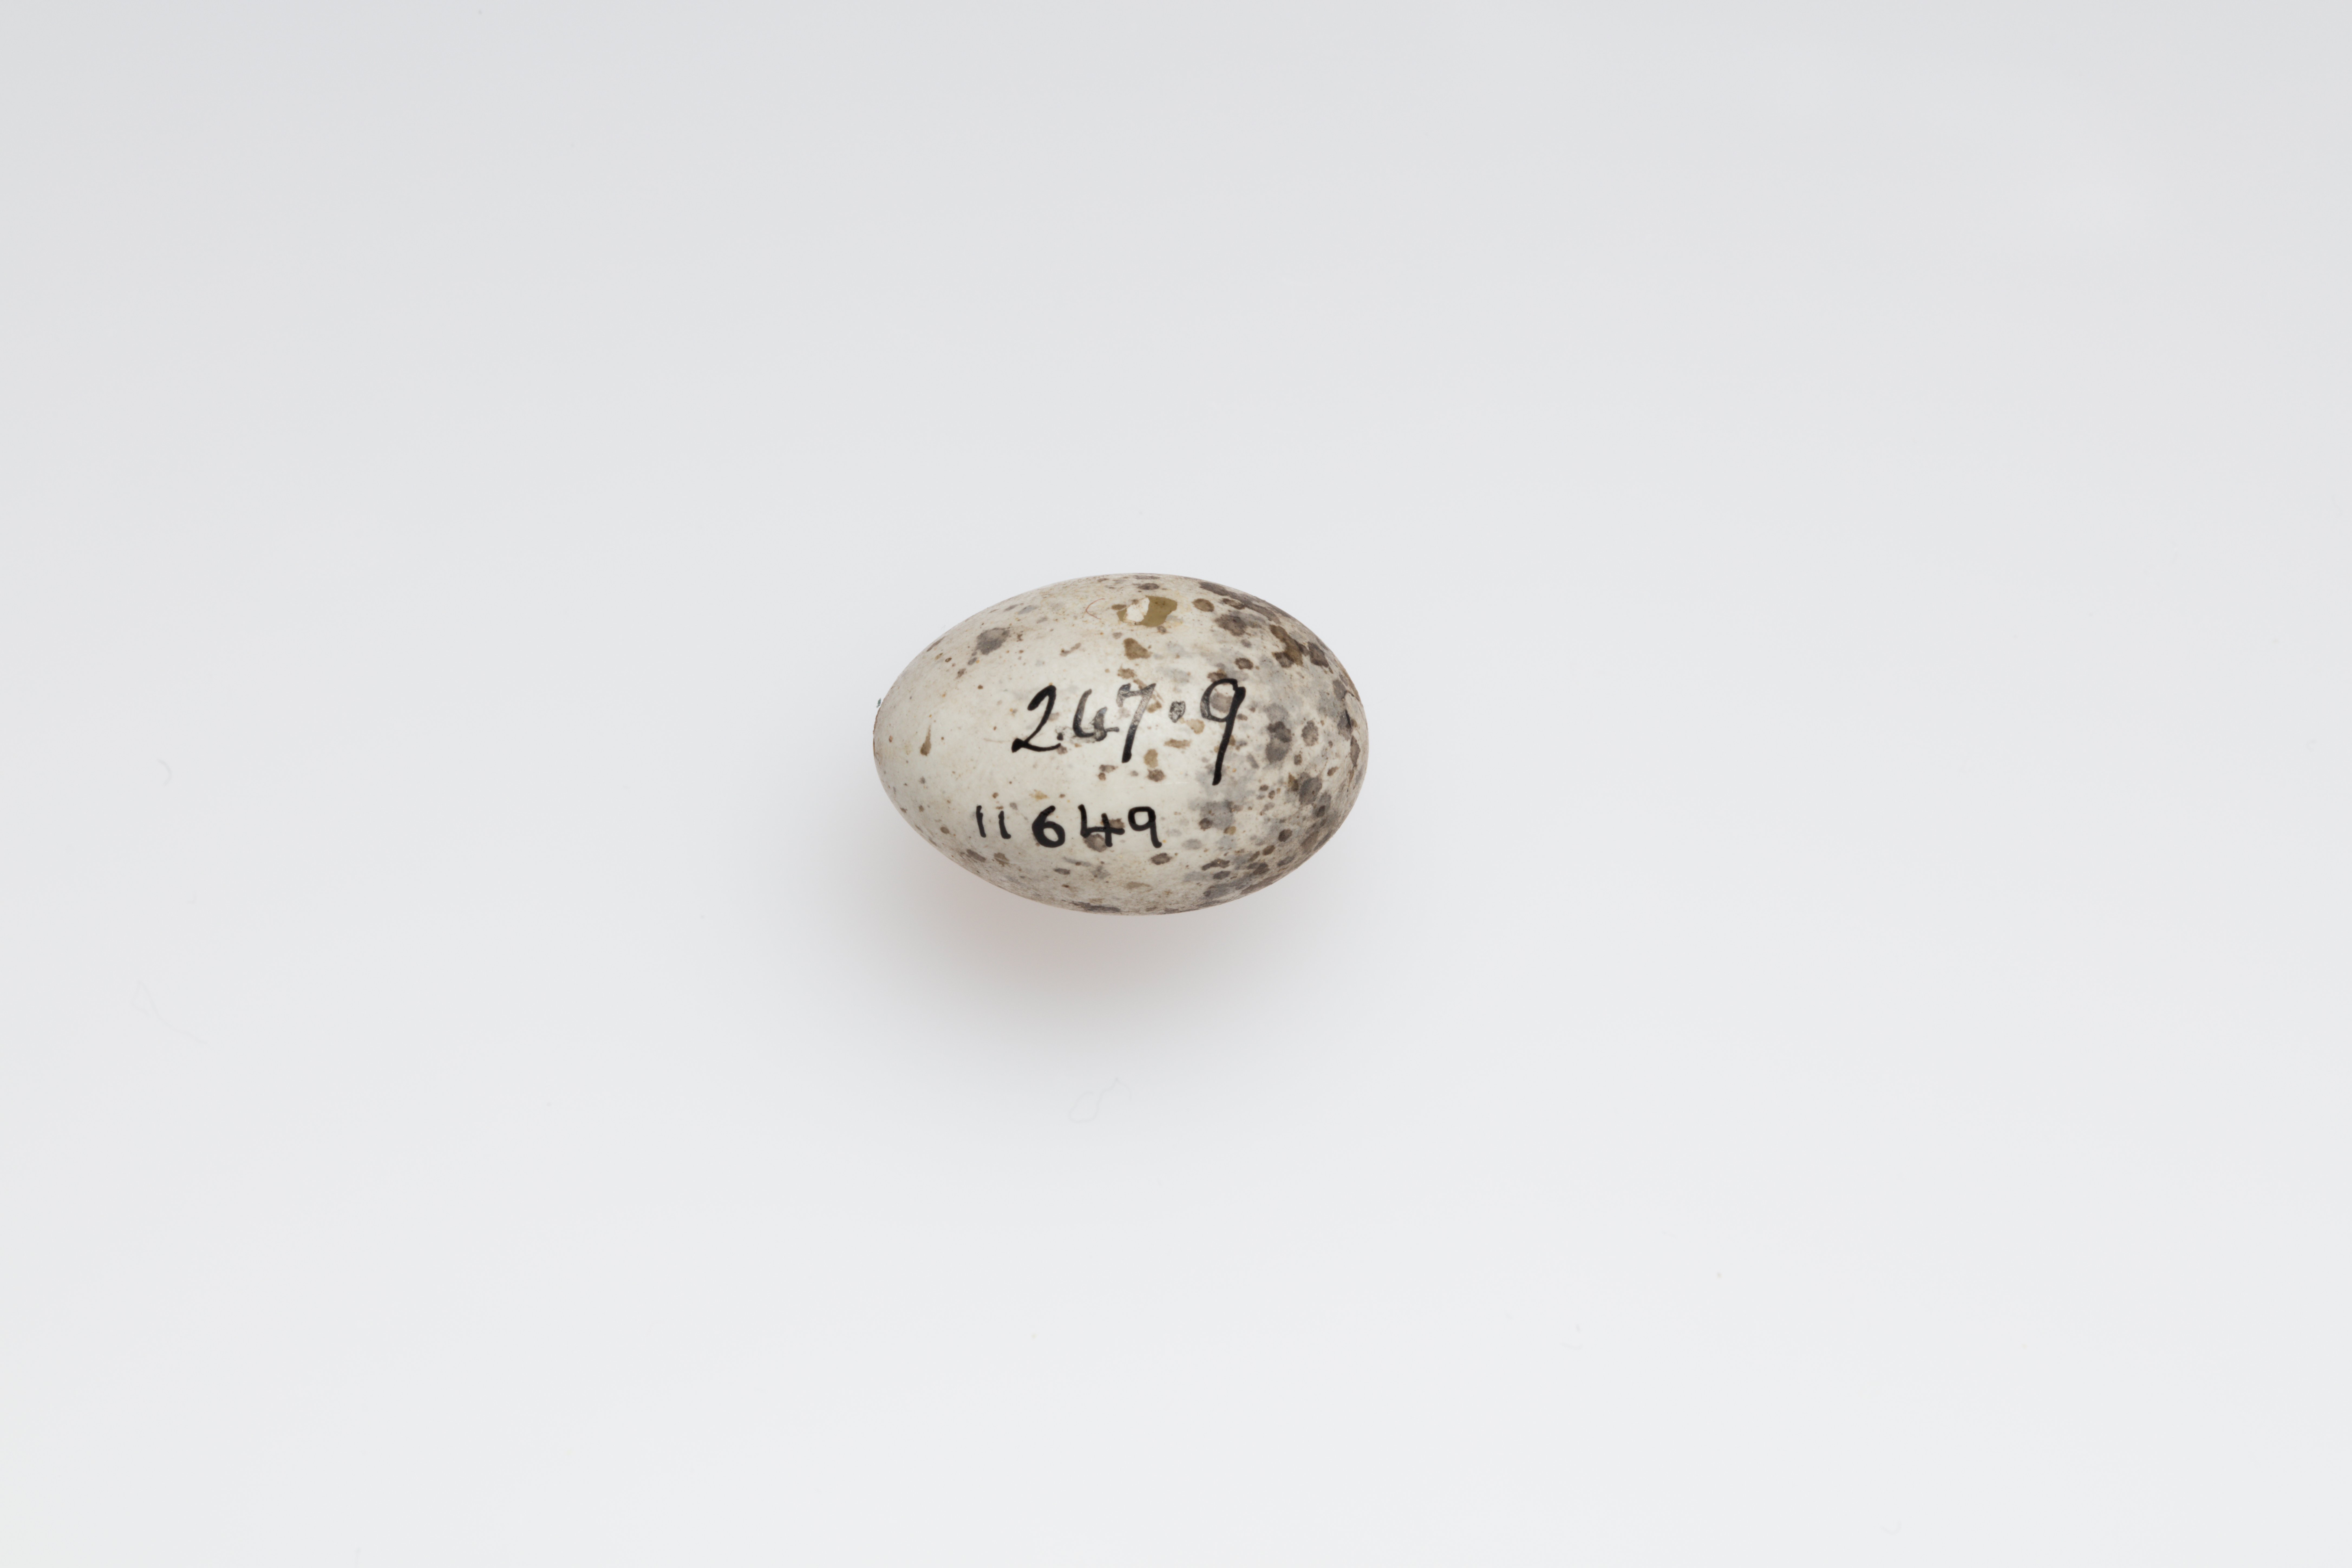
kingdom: Animalia
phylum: Chordata
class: Aves
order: Passeriformes
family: Passeridae
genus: Passer
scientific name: Passer domesticus
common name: House sparrow
